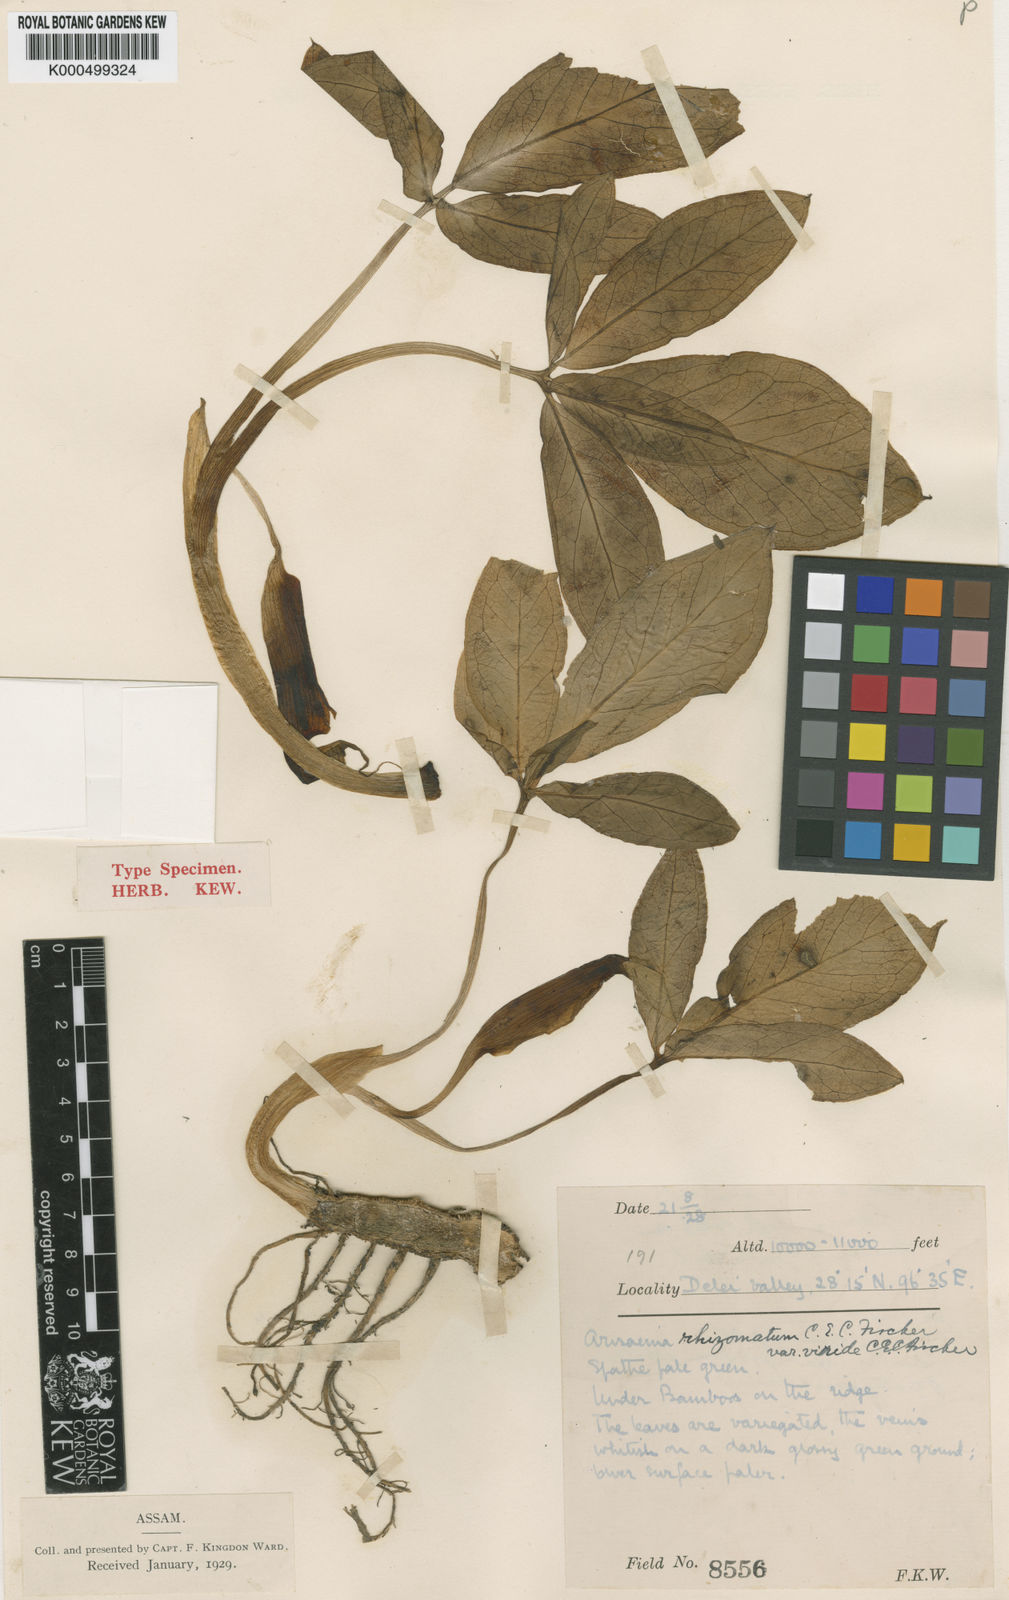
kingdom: Plantae
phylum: Tracheophyta
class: Liliopsida
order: Alismatales
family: Araceae
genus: Arisaema
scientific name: Arisaema decipiens
